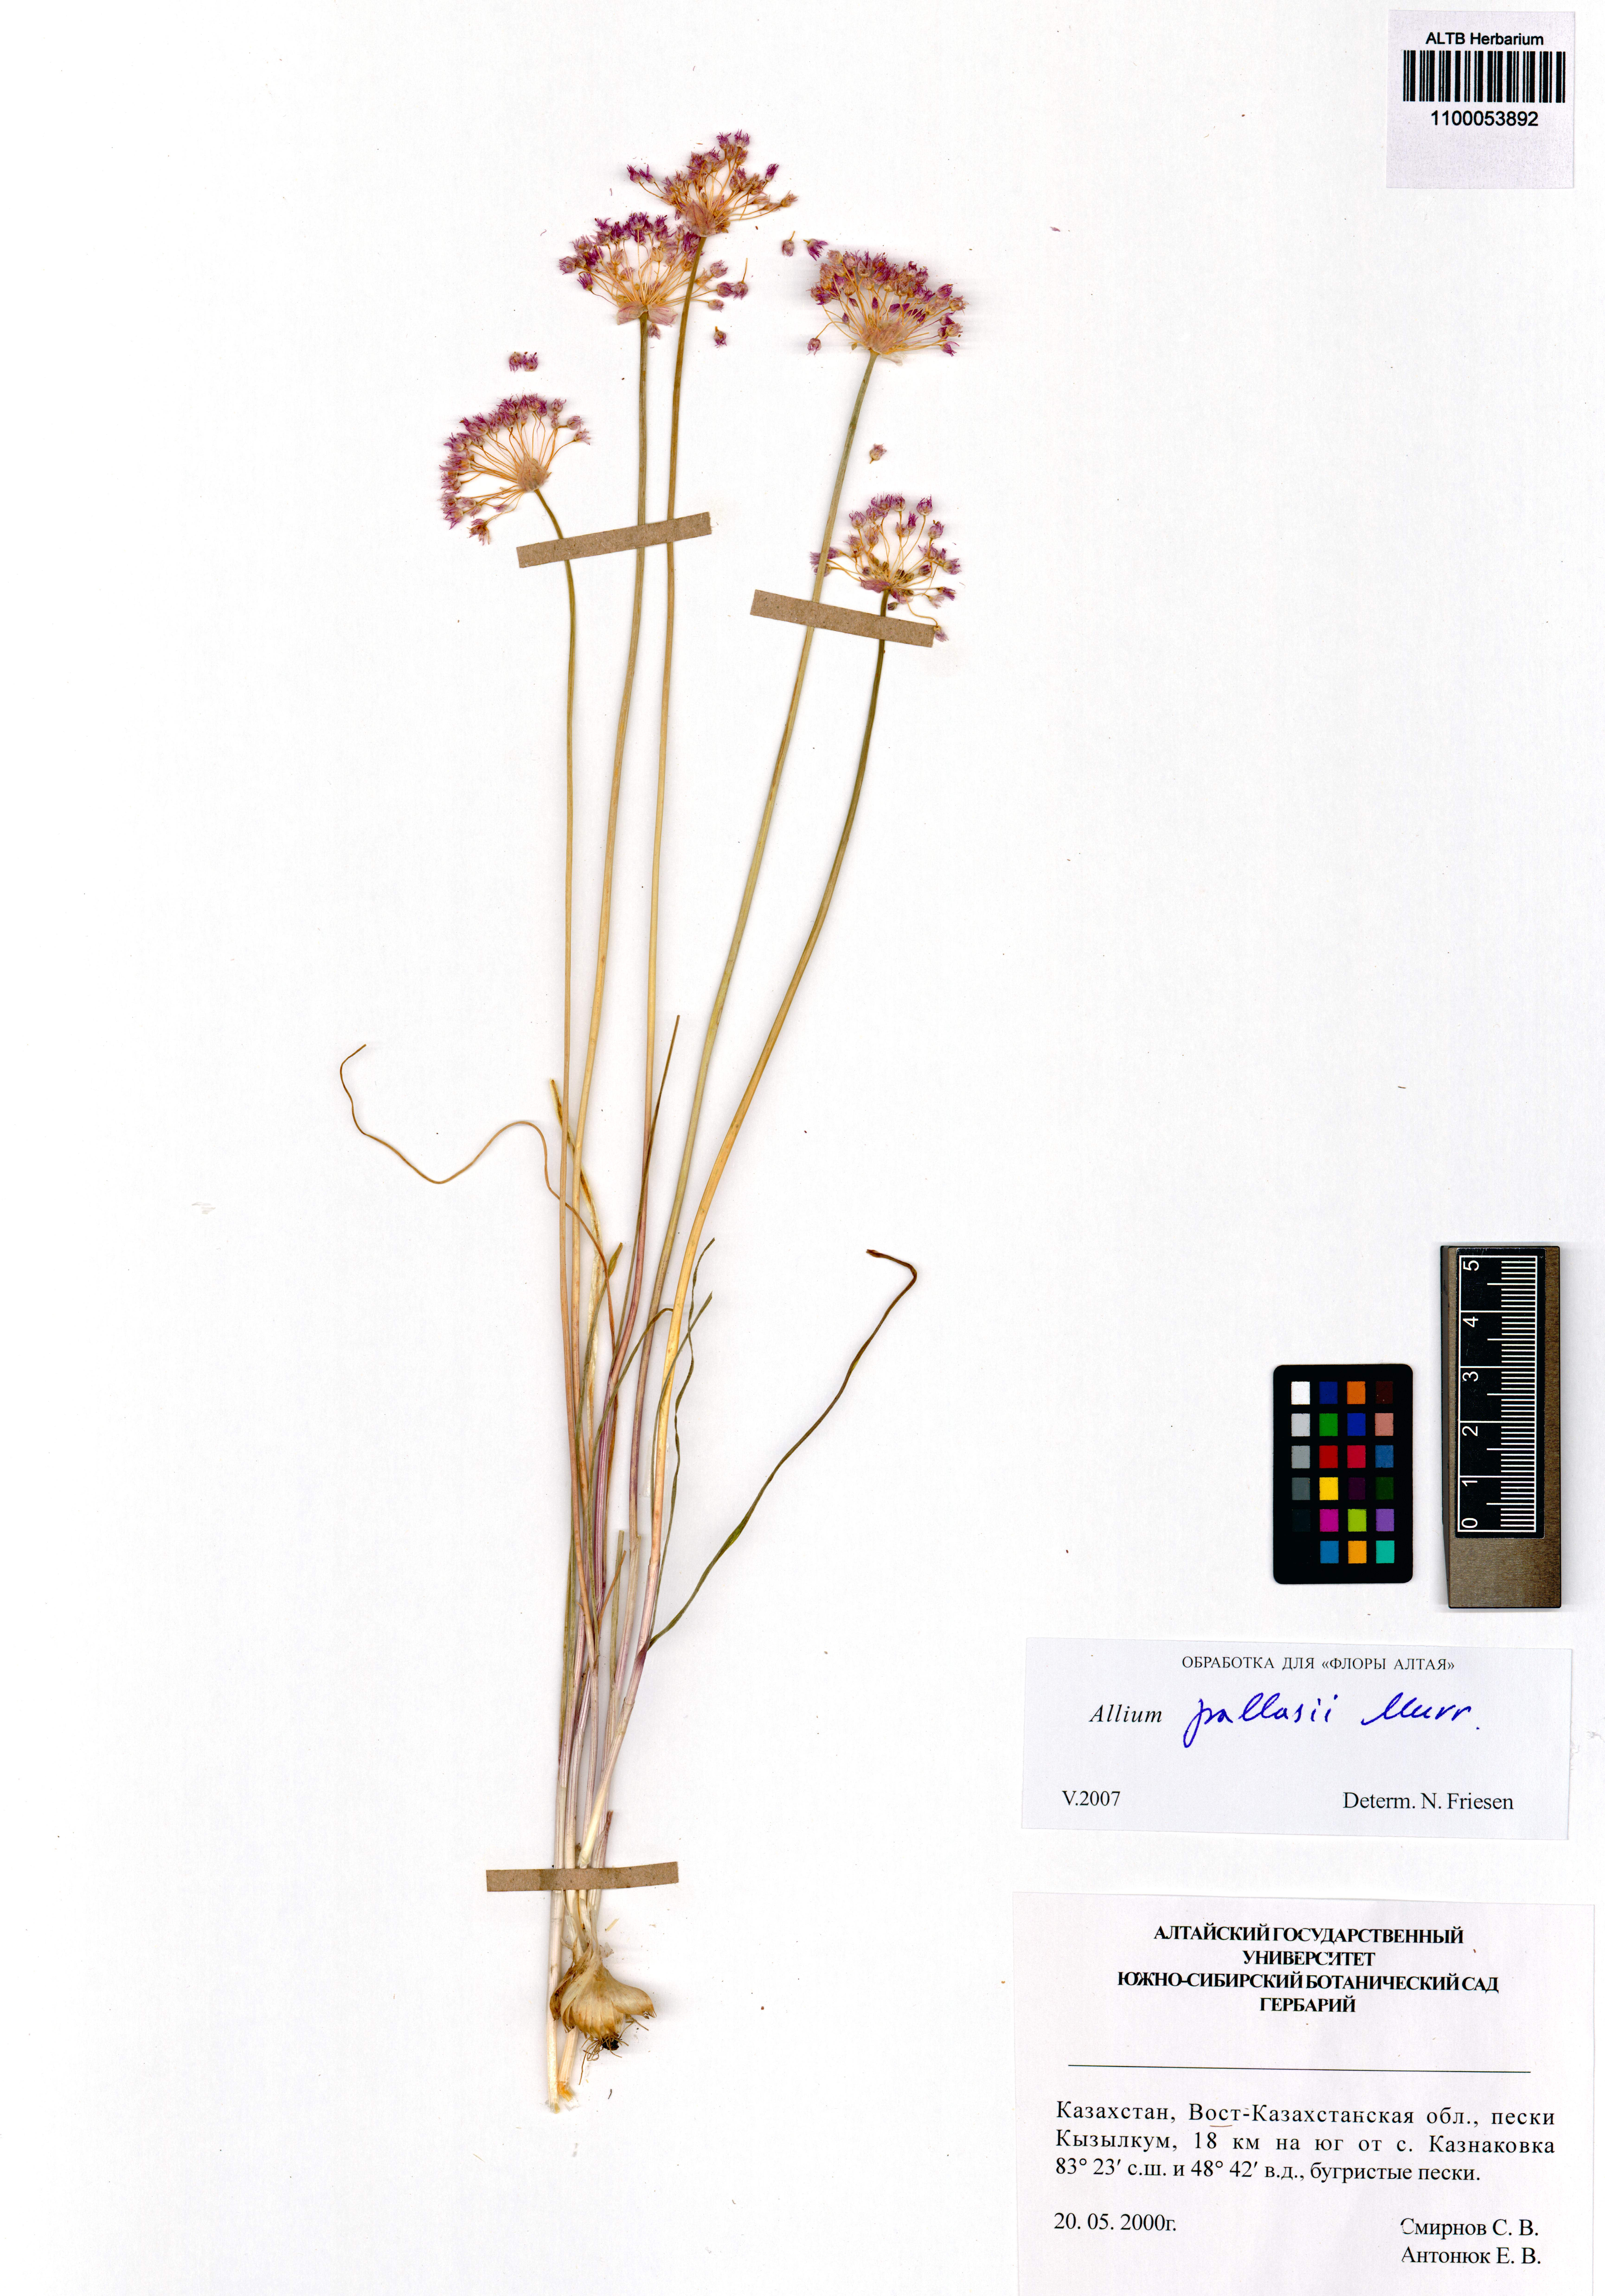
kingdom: Plantae
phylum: Tracheophyta
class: Liliopsida
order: Asparagales
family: Amaryllidaceae
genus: Allium
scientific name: Allium pallasii
